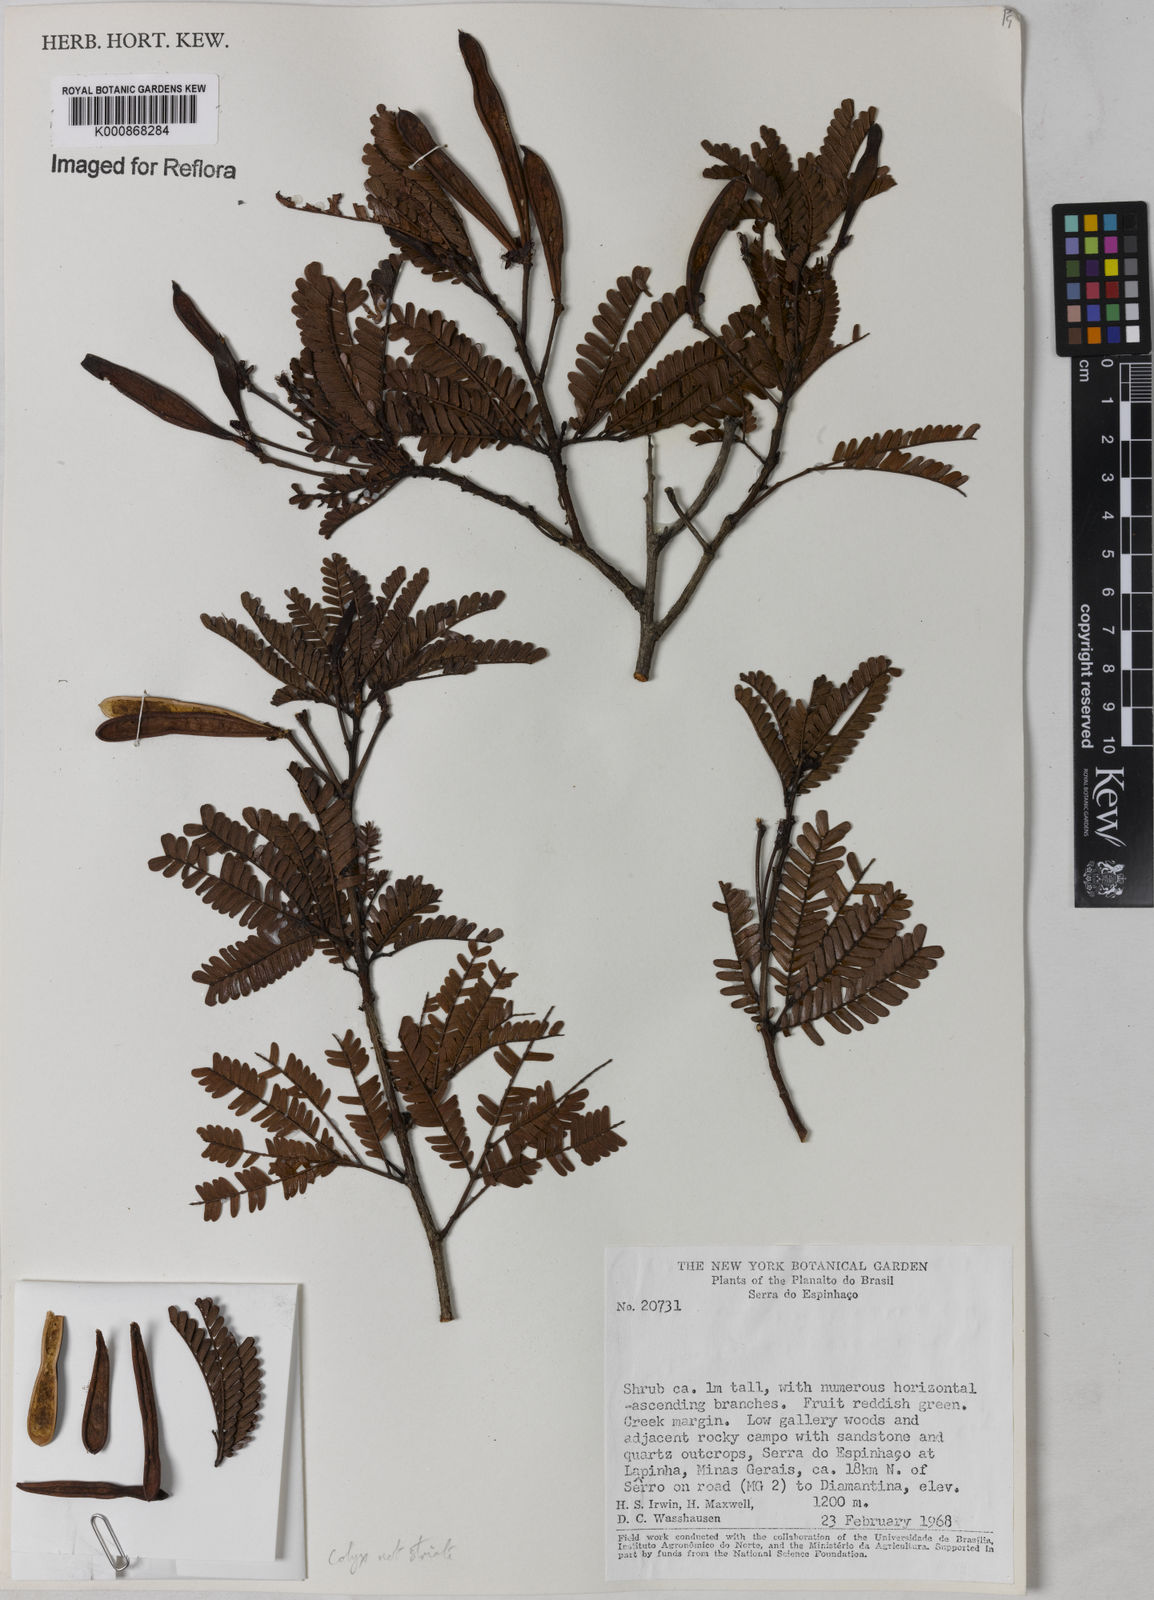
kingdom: Plantae
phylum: Tracheophyta
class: Magnoliopsida
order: Fabales
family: Fabaceae
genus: Calliandra
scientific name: Calliandra
